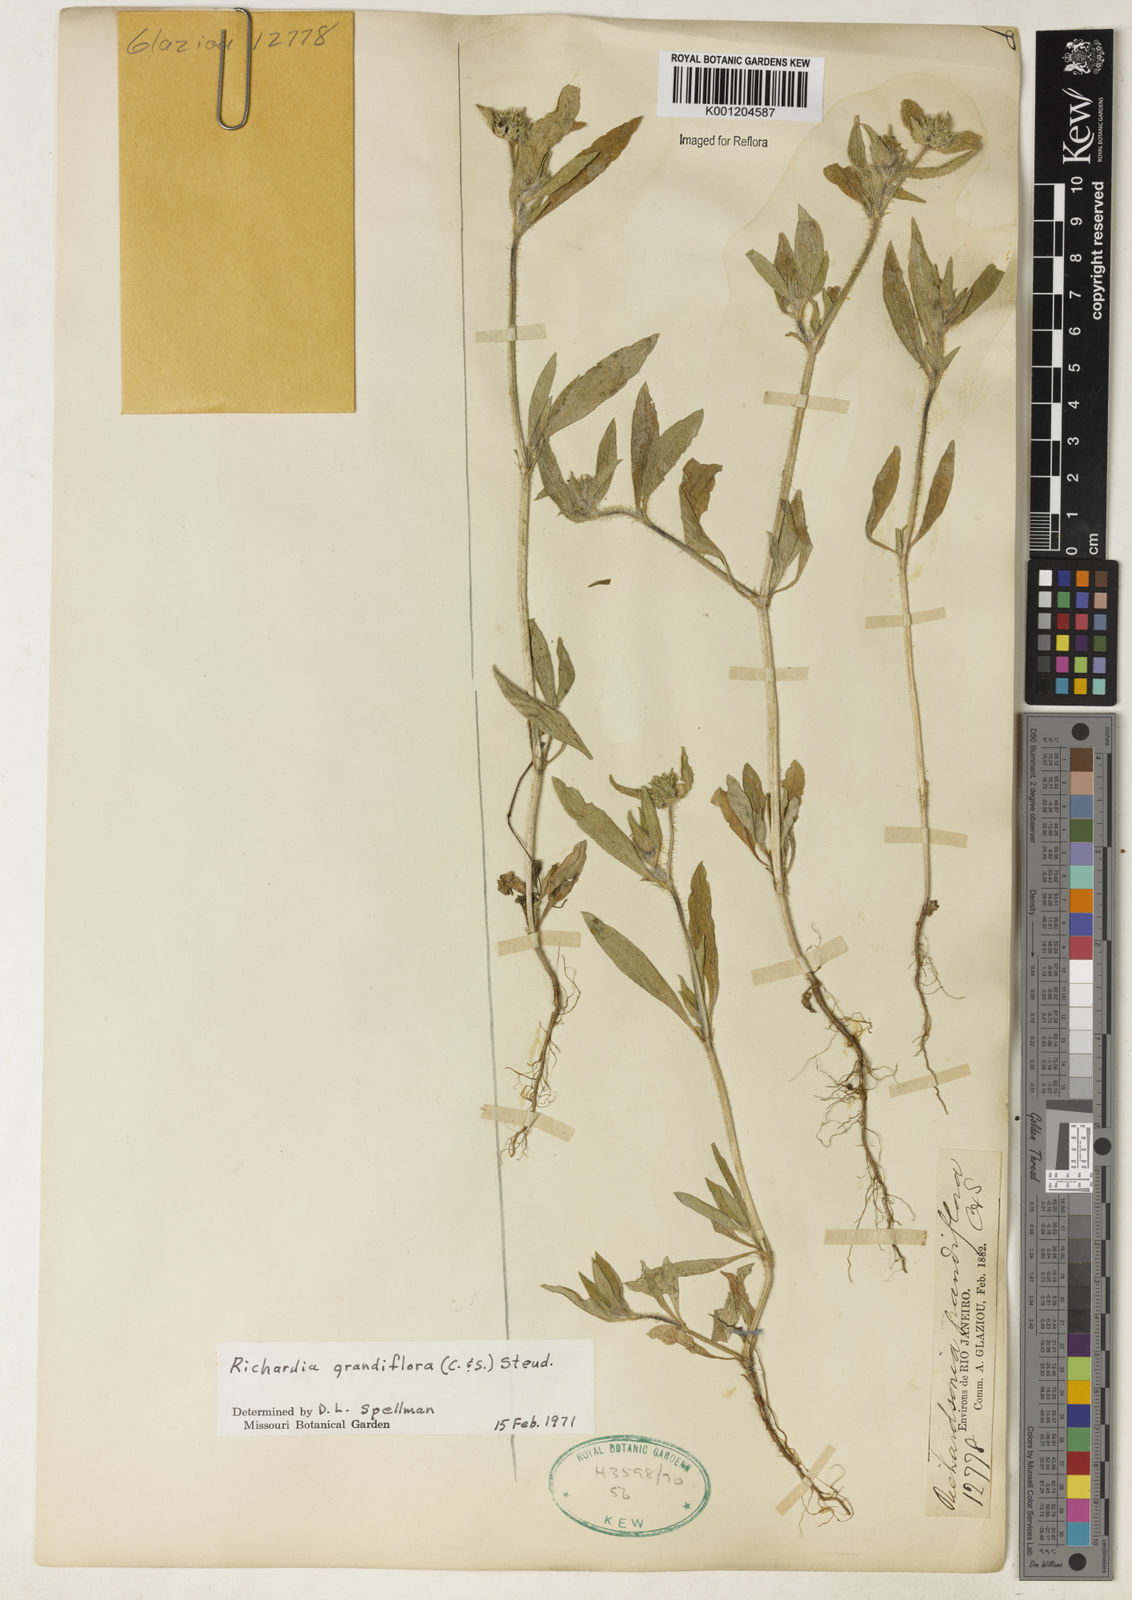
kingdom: Plantae
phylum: Tracheophyta
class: Magnoliopsida
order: Gentianales
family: Rubiaceae
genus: Richardia
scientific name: Richardia grandiflora
